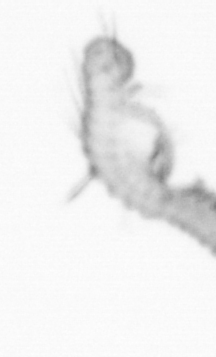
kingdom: Animalia
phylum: Annelida
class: Polychaeta
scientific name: Polychaeta
